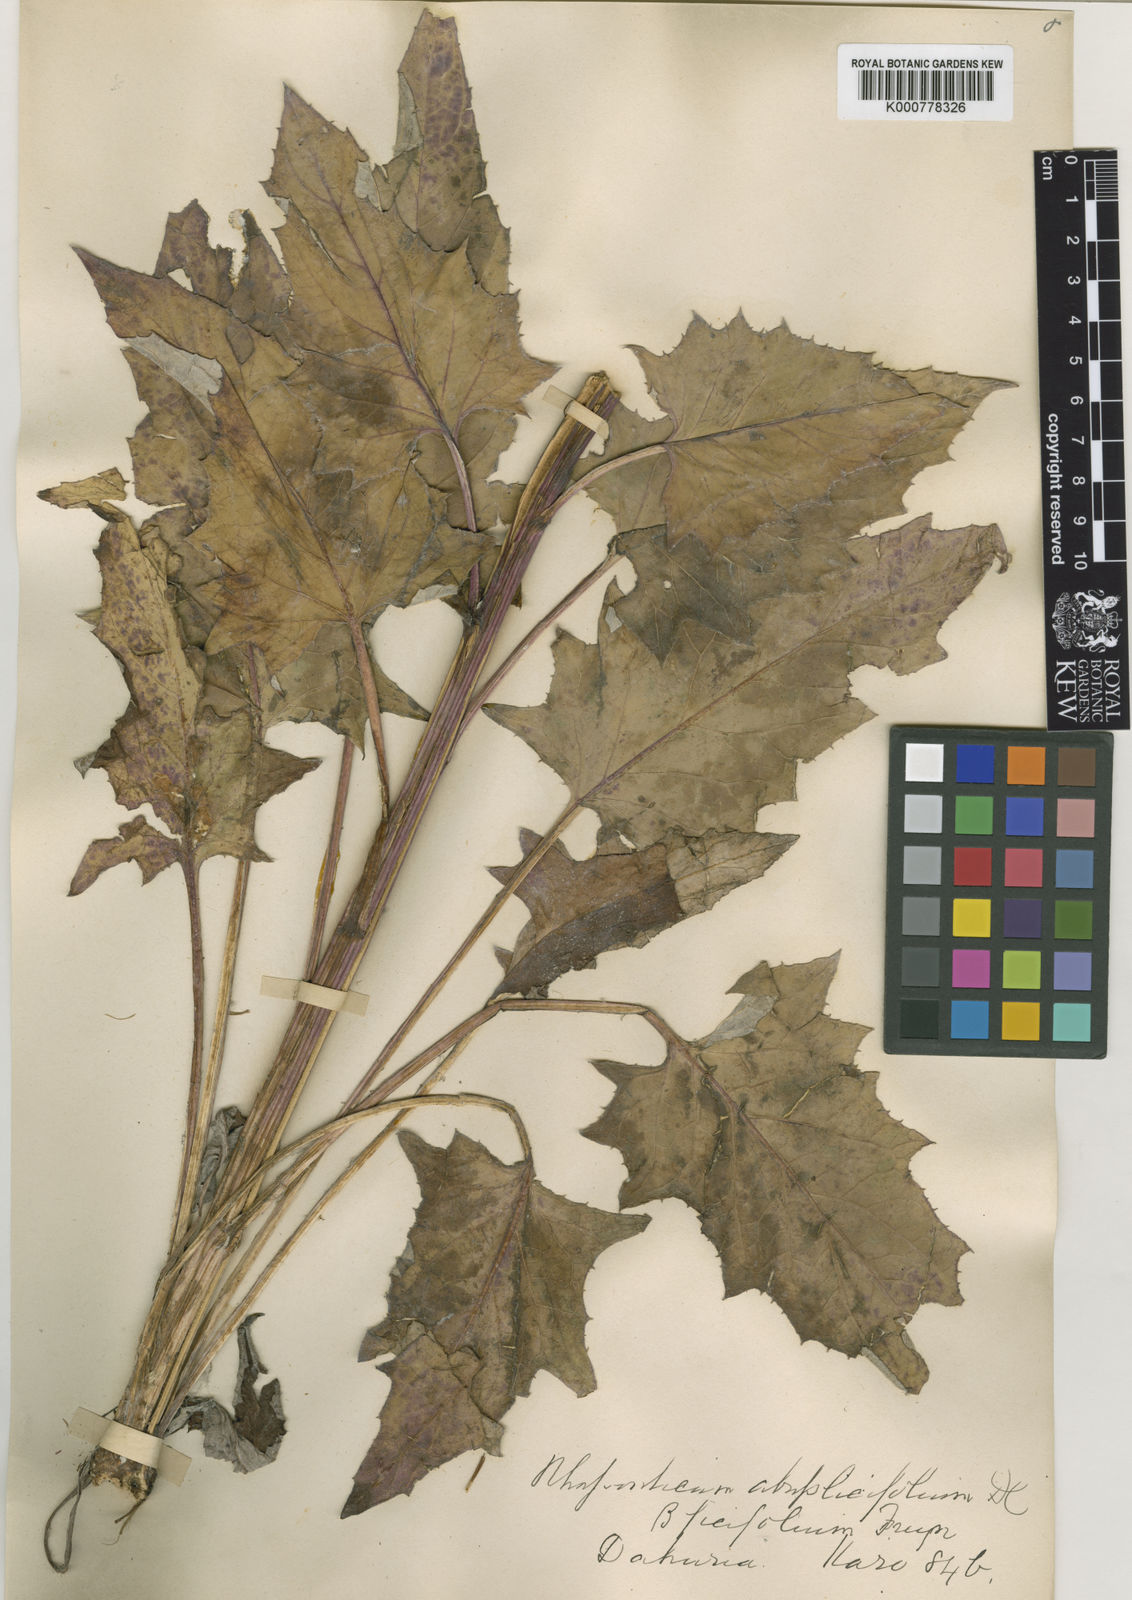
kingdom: Plantae
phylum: Tracheophyta
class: Magnoliopsida
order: Asterales
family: Asteraceae
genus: Olgaea
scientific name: Olgaea
